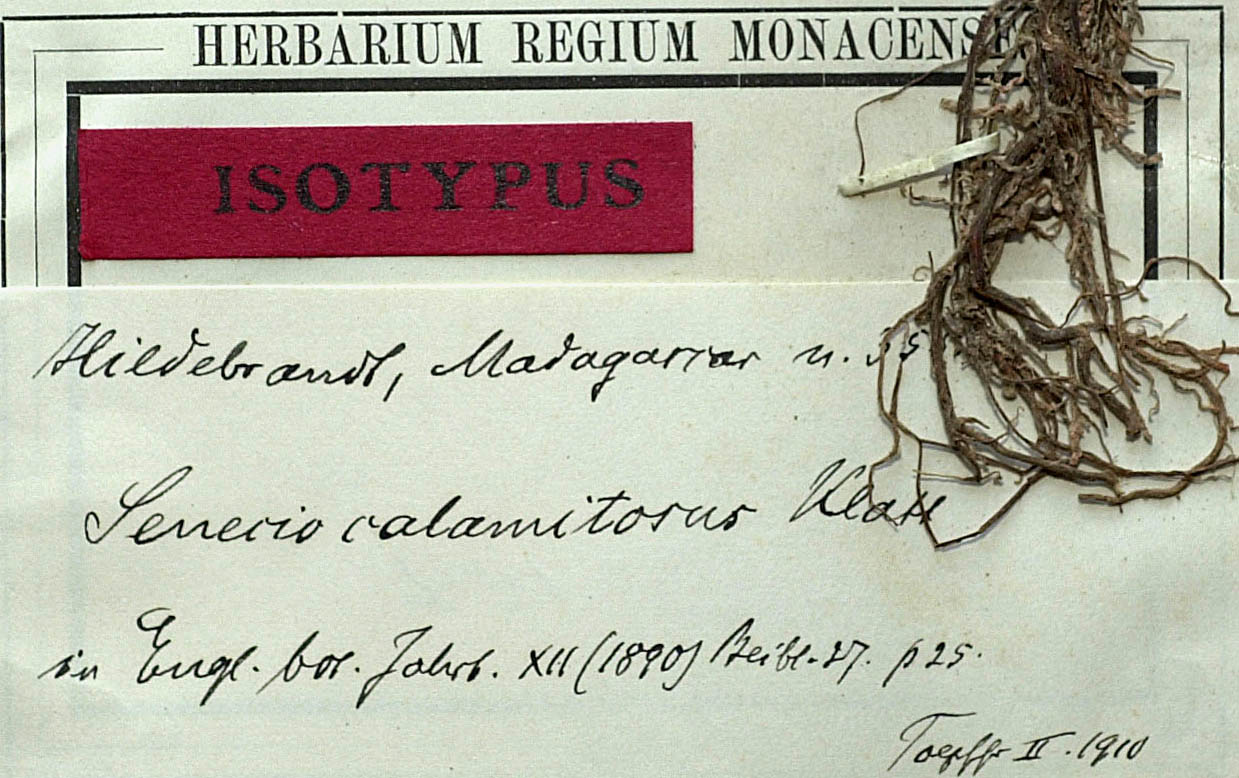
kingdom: Plantae
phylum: Tracheophyta
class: Magnoliopsida
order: Asterales
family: Asteraceae
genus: Senecio
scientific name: Senecio garnieri
